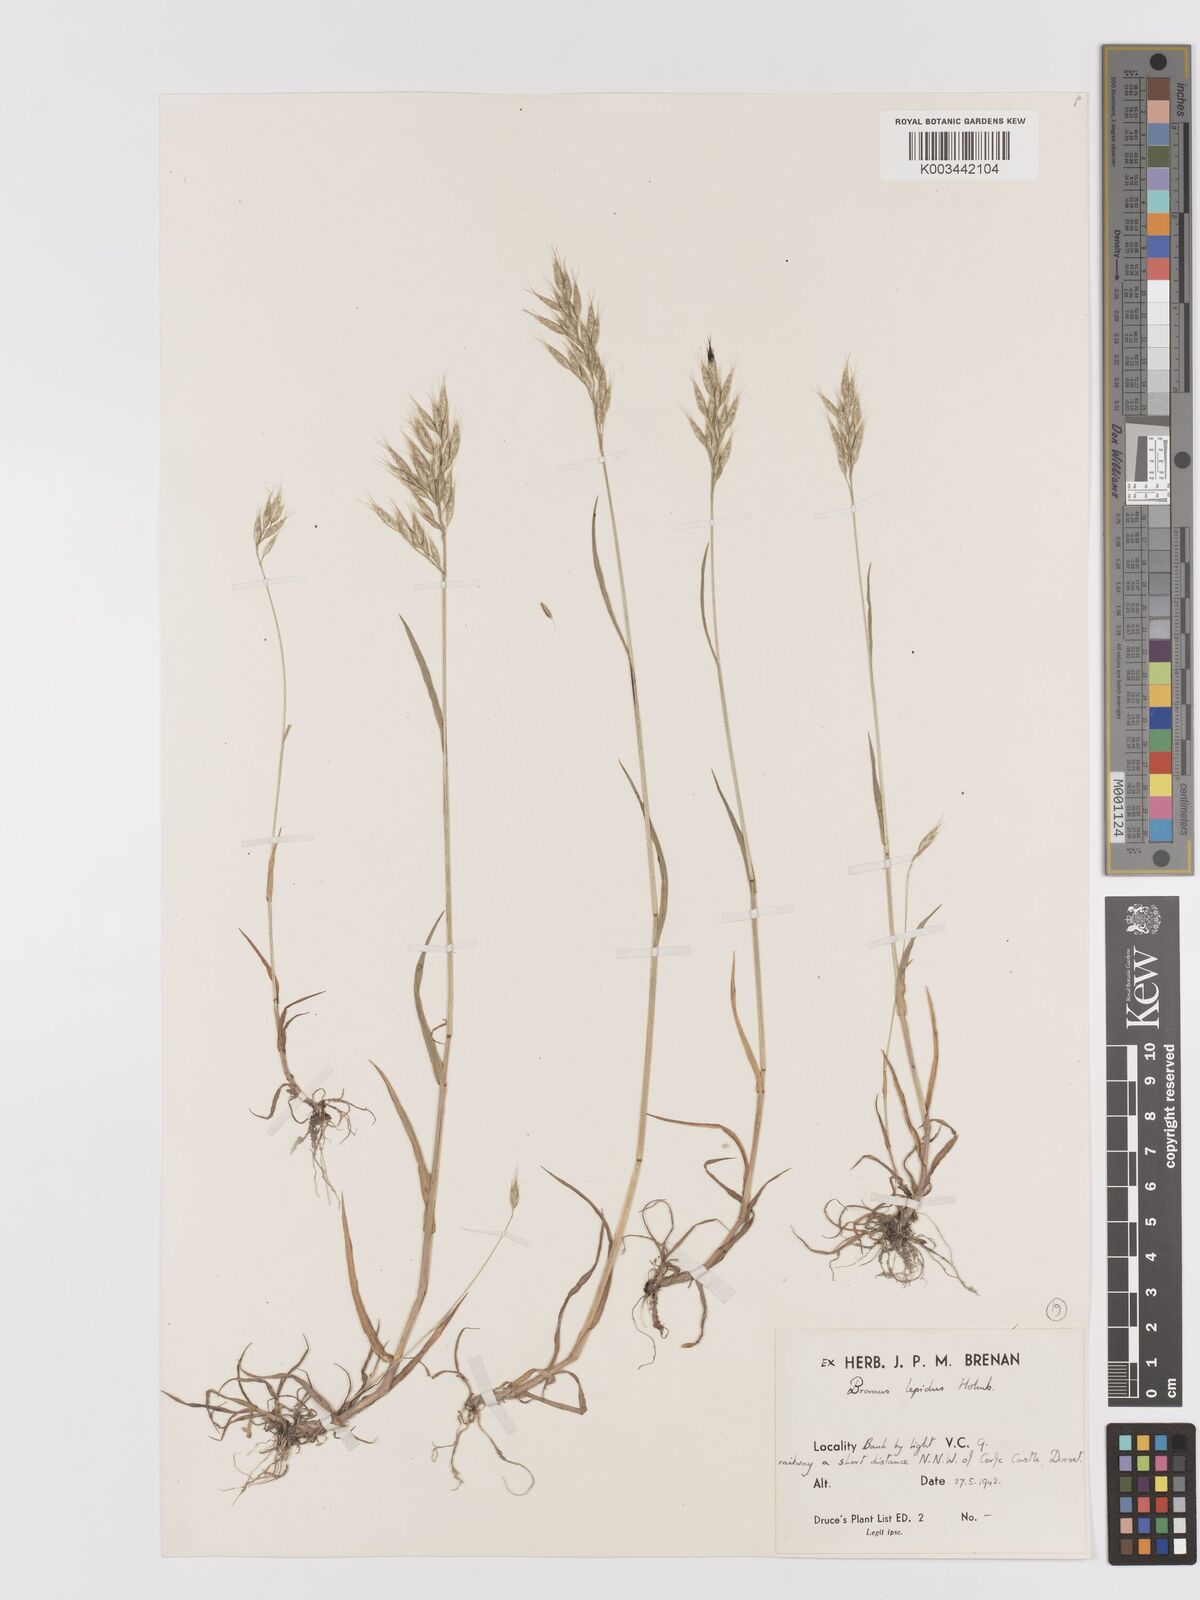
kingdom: Plantae
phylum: Tracheophyta
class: Liliopsida
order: Poales
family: Poaceae
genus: Bromus
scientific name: Bromus lepidus
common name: Slender soft-brome
